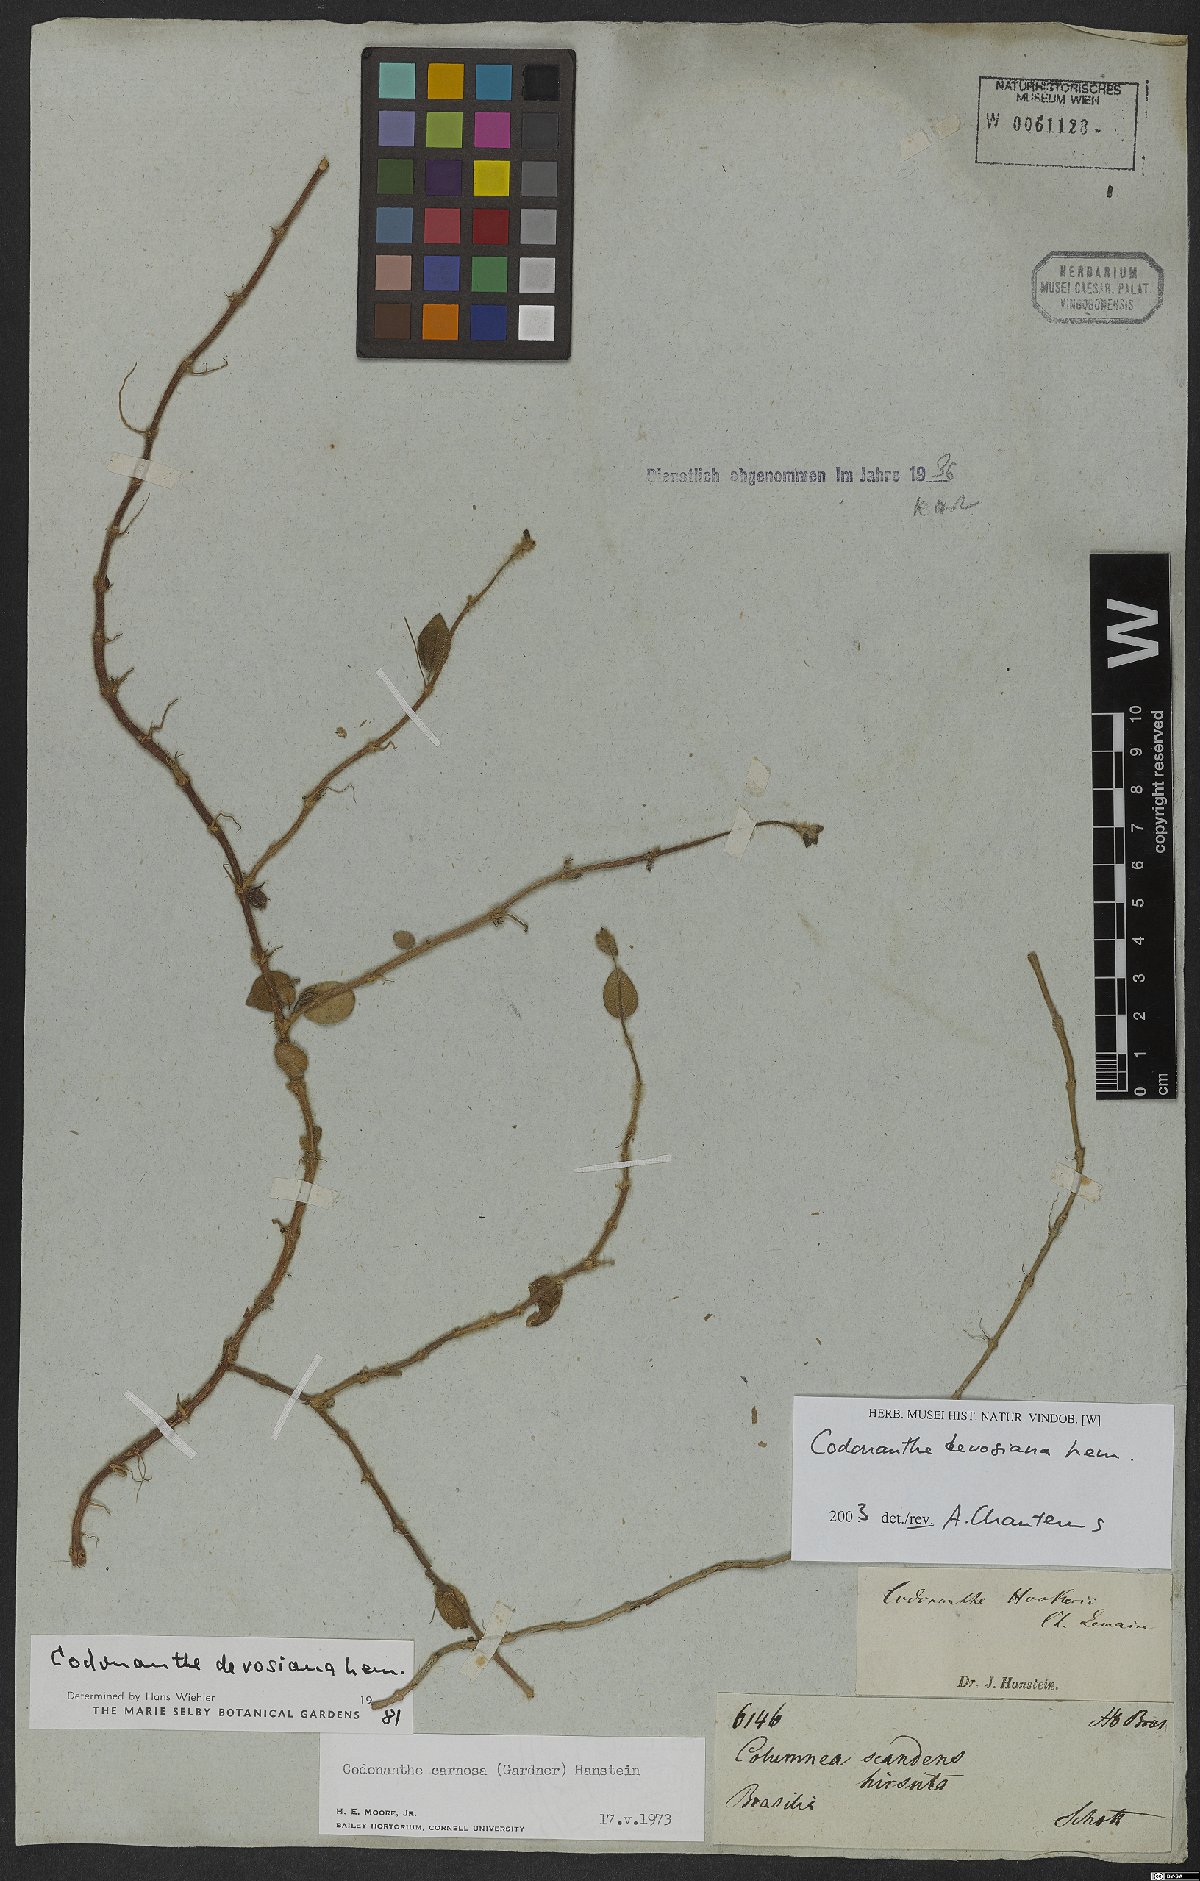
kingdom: Plantae
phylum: Tracheophyta
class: Magnoliopsida
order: Lamiales
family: Gesneriaceae
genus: Codonanthe
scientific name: Codonanthe devosiana
